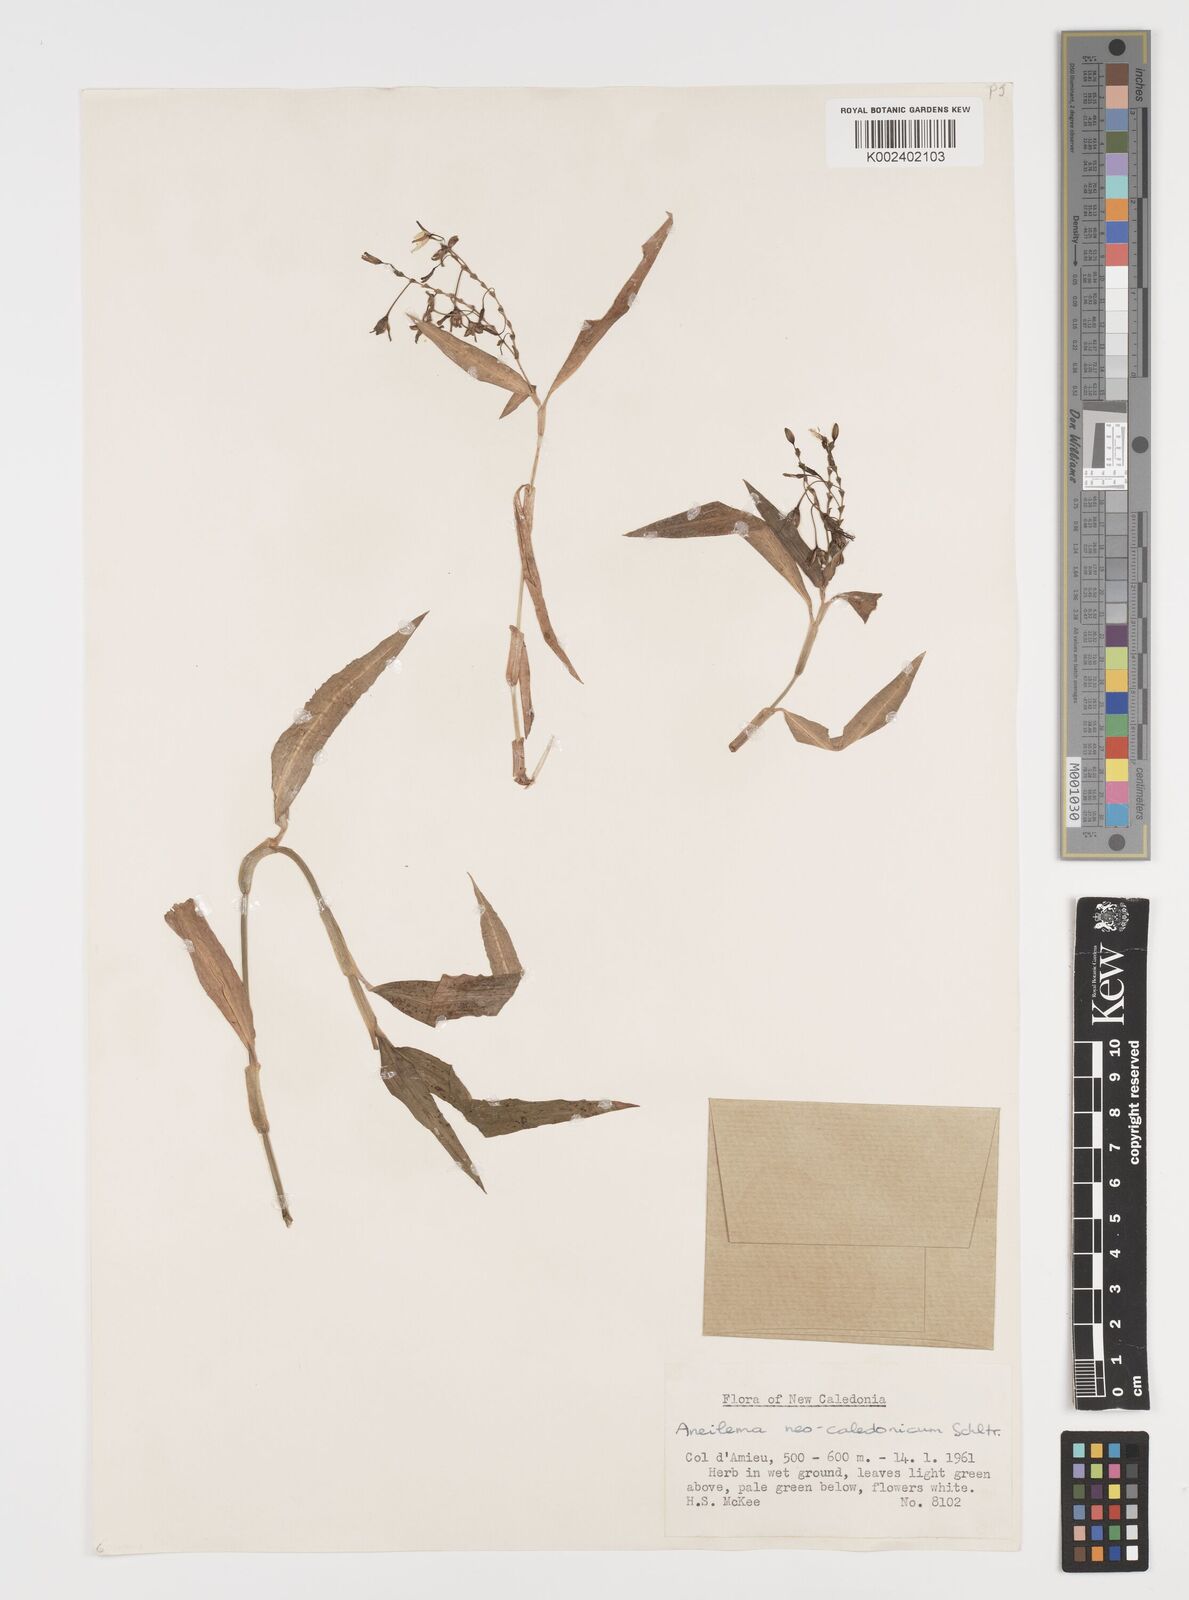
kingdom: Plantae
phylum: Tracheophyta
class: Liliopsida
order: Commelinales
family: Commelinaceae
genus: Aneilema
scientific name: Aneilema neocaledonicum
